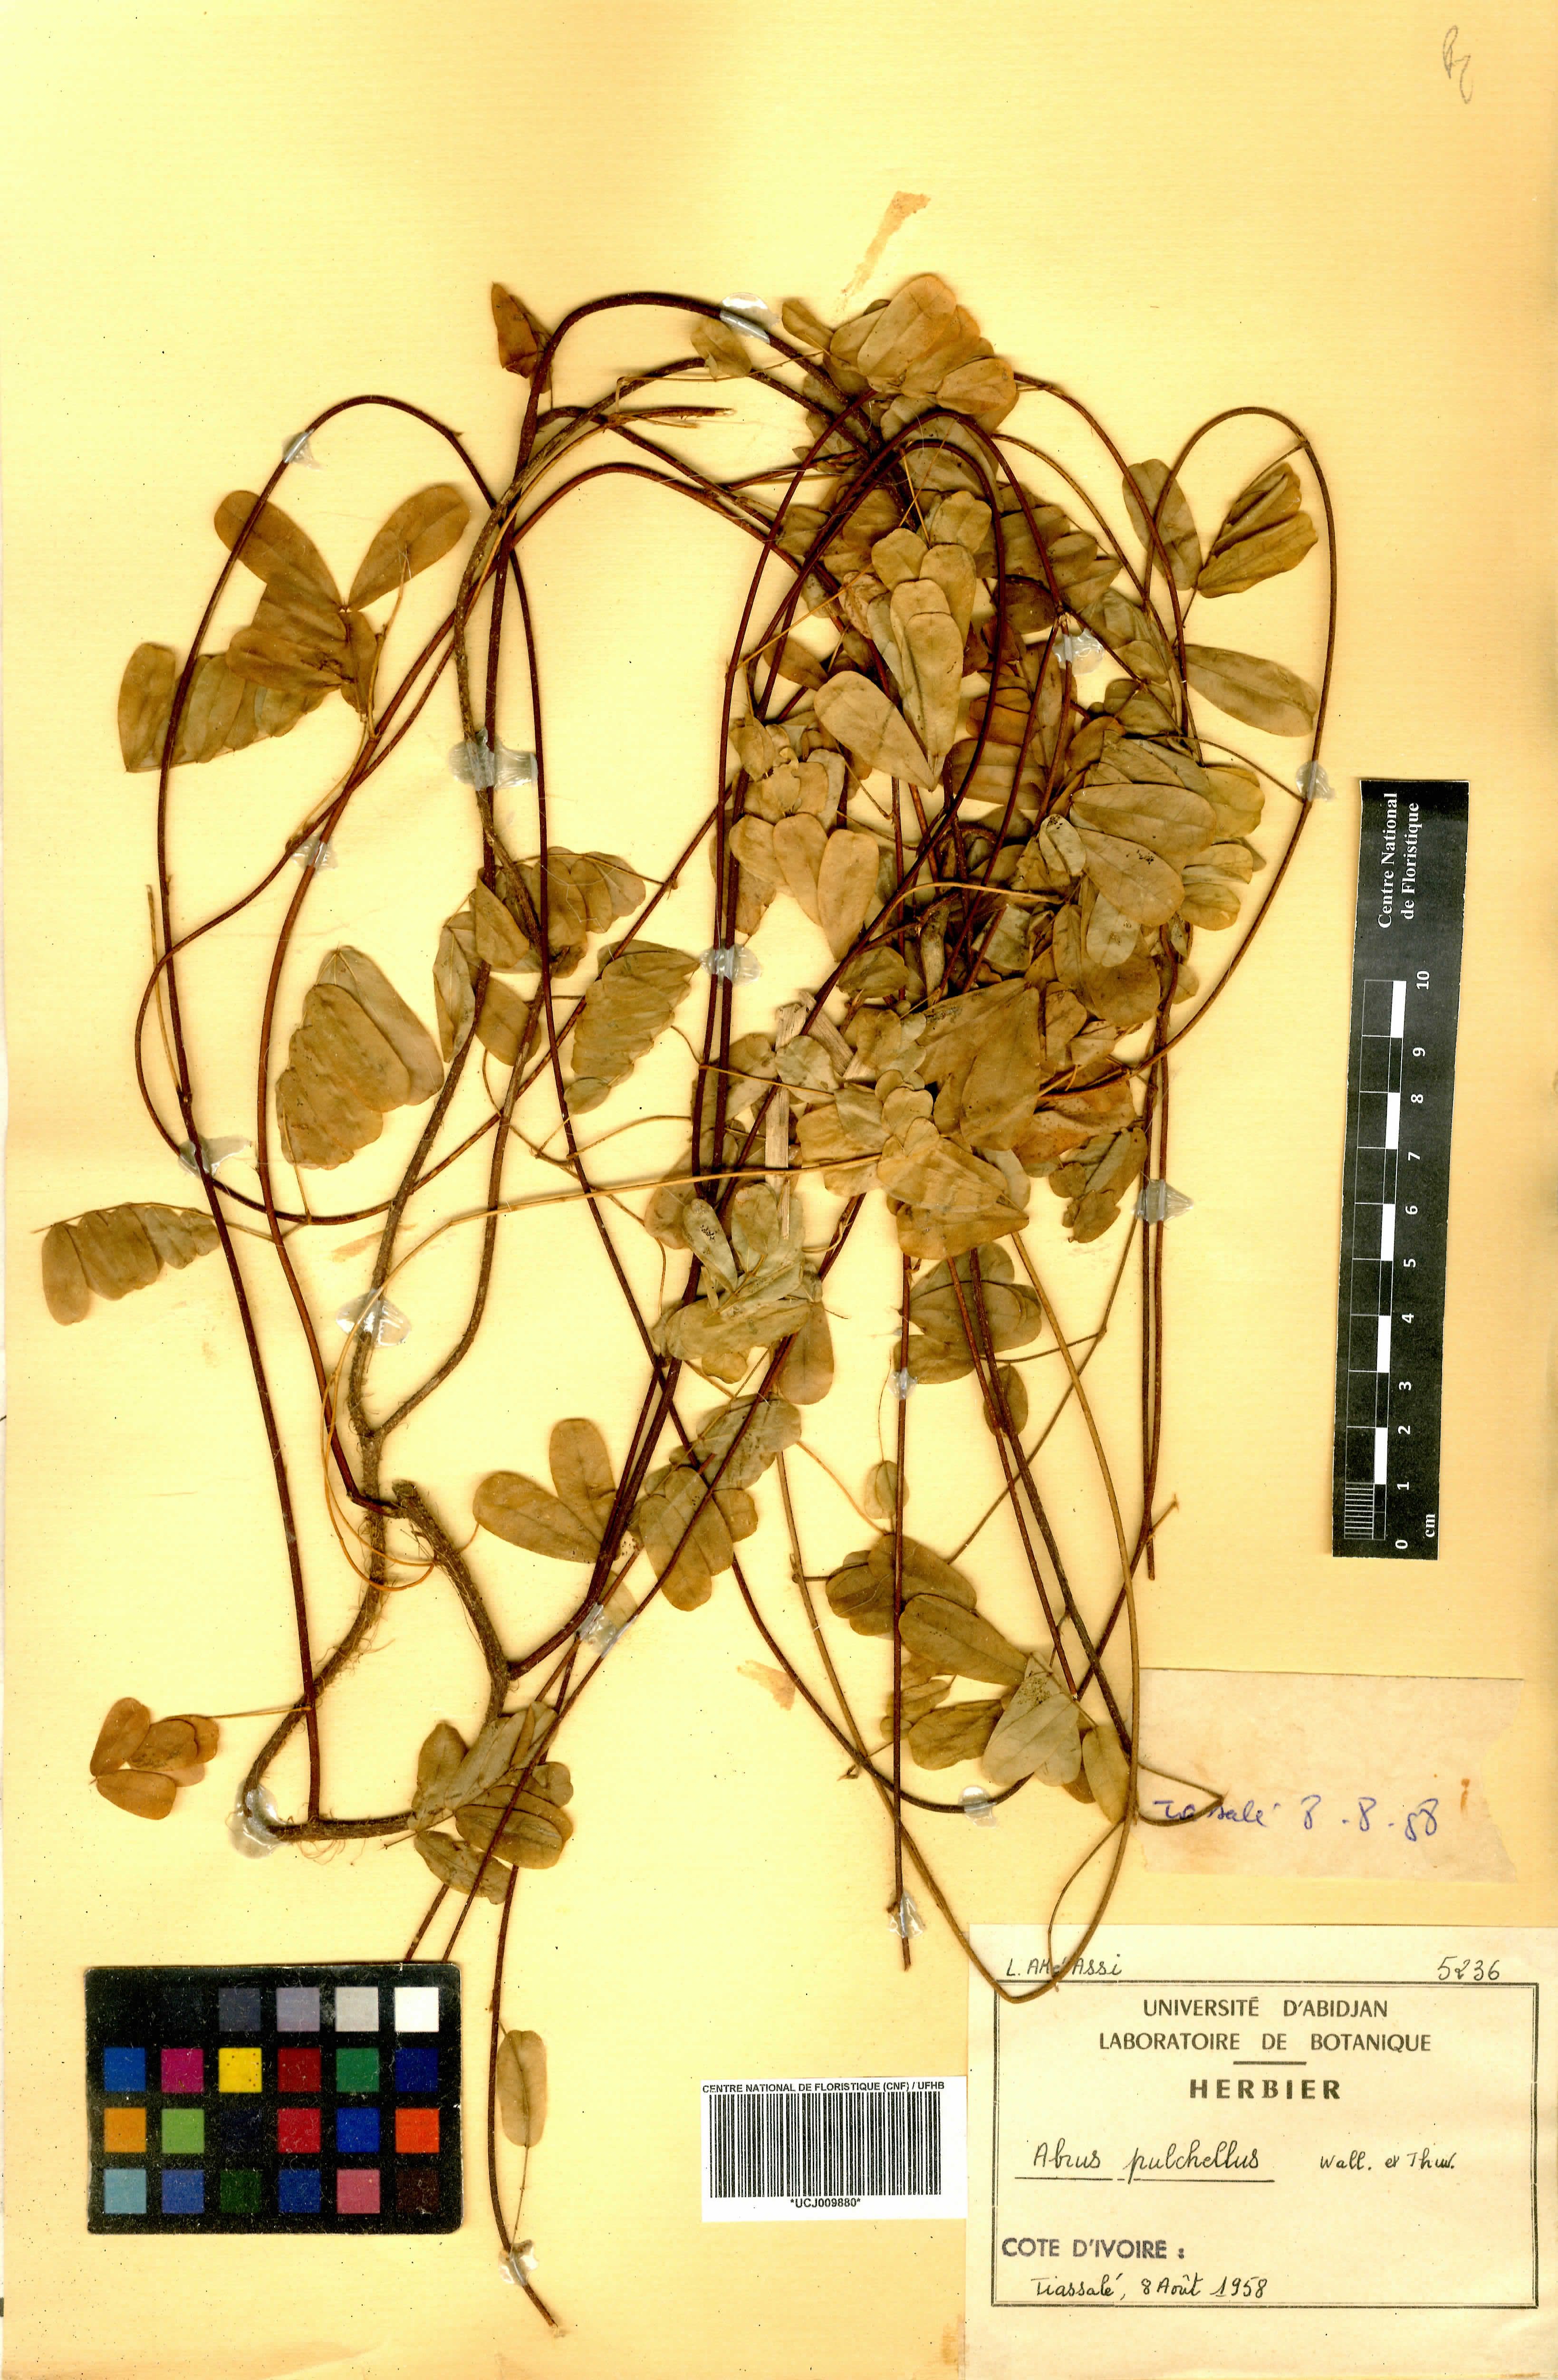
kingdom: Plantae
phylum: Tracheophyta
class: Magnoliopsida
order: Fabales
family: Fabaceae
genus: Abrus
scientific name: Abrus fruticulosus
